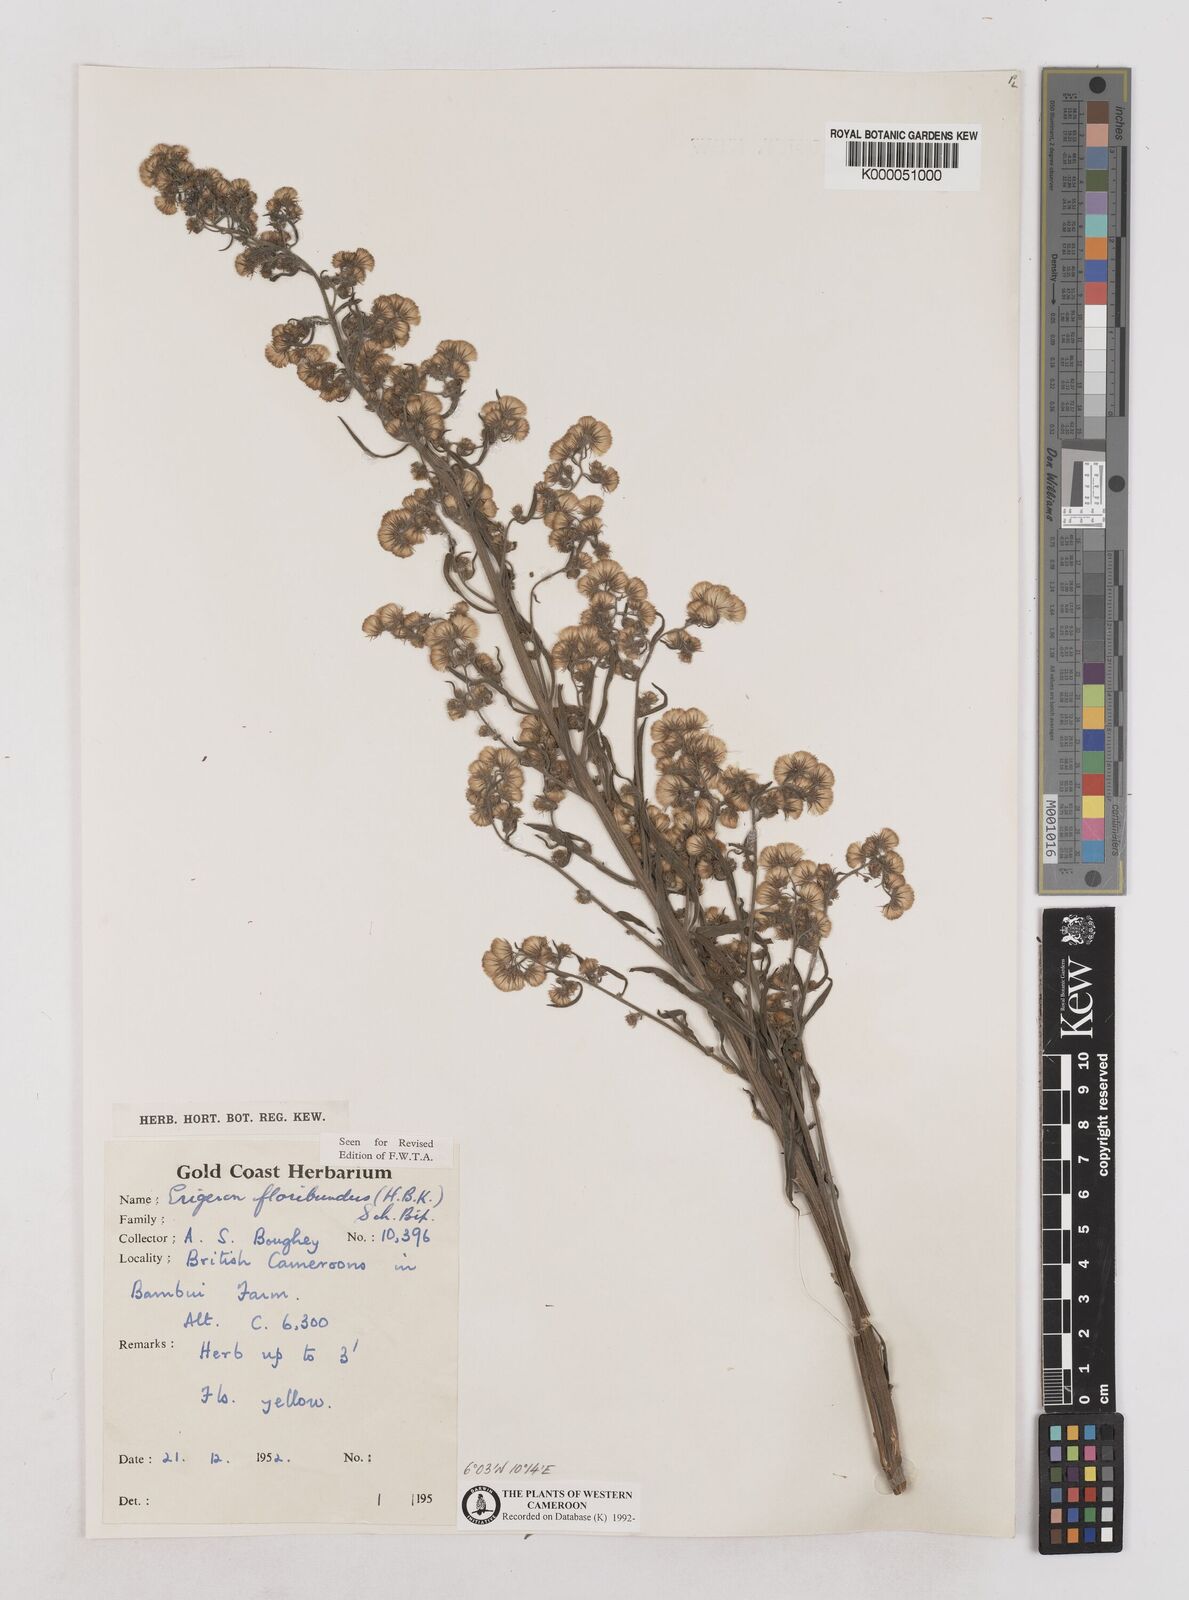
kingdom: Plantae
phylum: Tracheophyta
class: Magnoliopsida
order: Asterales
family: Asteraceae
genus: Erigeron
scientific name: Erigeron bonariensis
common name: Argentine fleabane
